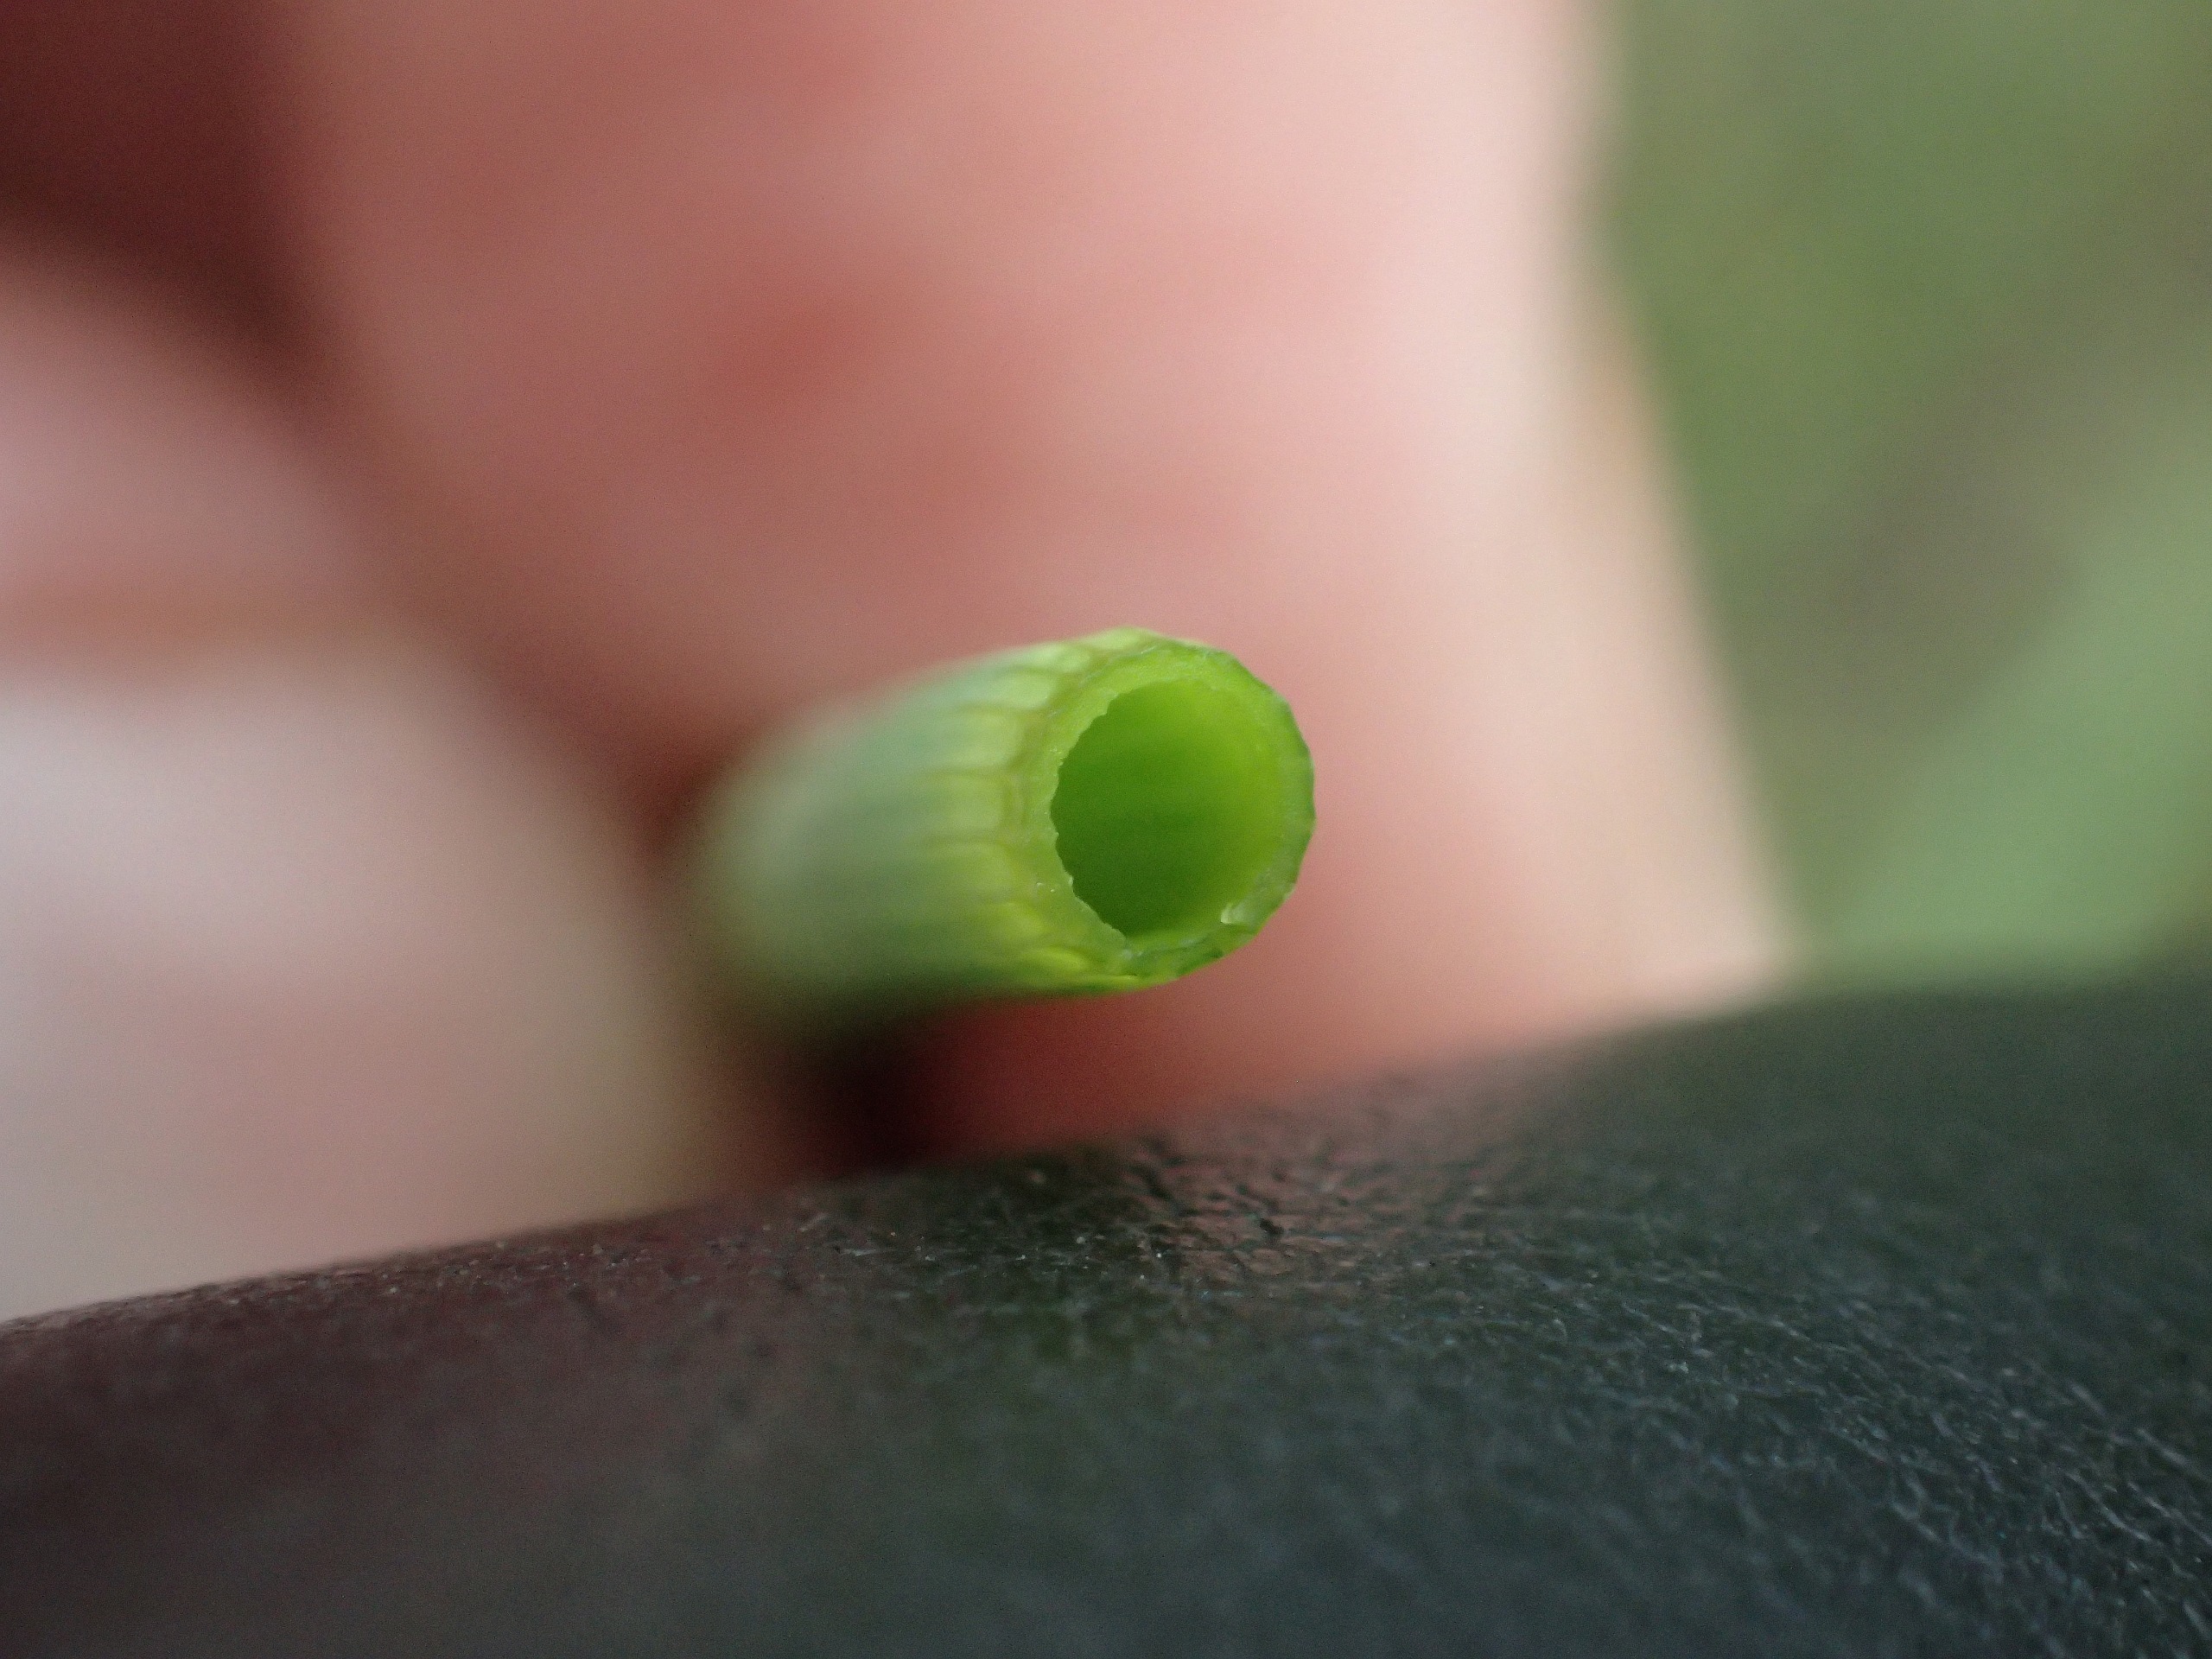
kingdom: Plantae
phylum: Tracheophyta
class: Polypodiopsida
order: Equisetales
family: Equisetaceae
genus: Equisetum
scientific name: Equisetum fluviatile
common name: Dynd-padderok
